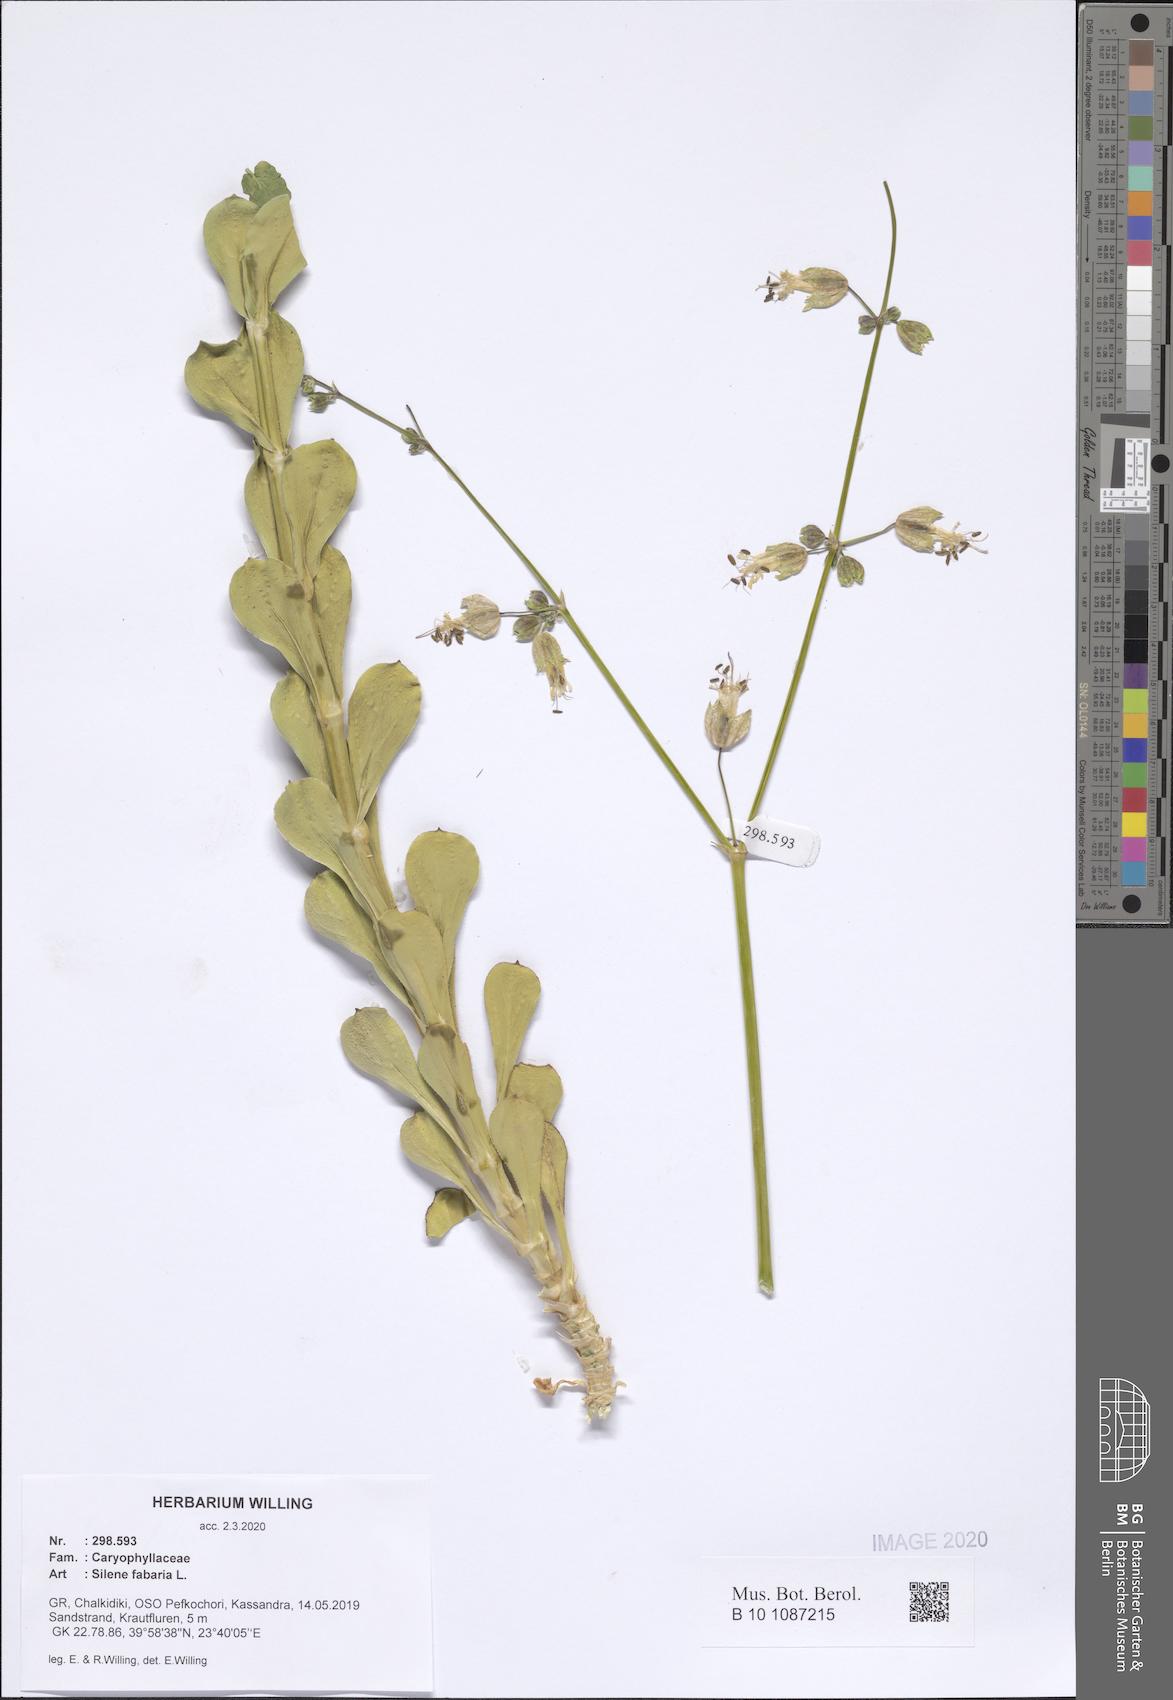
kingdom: Plantae
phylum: Tracheophyta
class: Magnoliopsida
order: Caryophyllales
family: Caryophyllaceae
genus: Silene
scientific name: Silene fabaria
